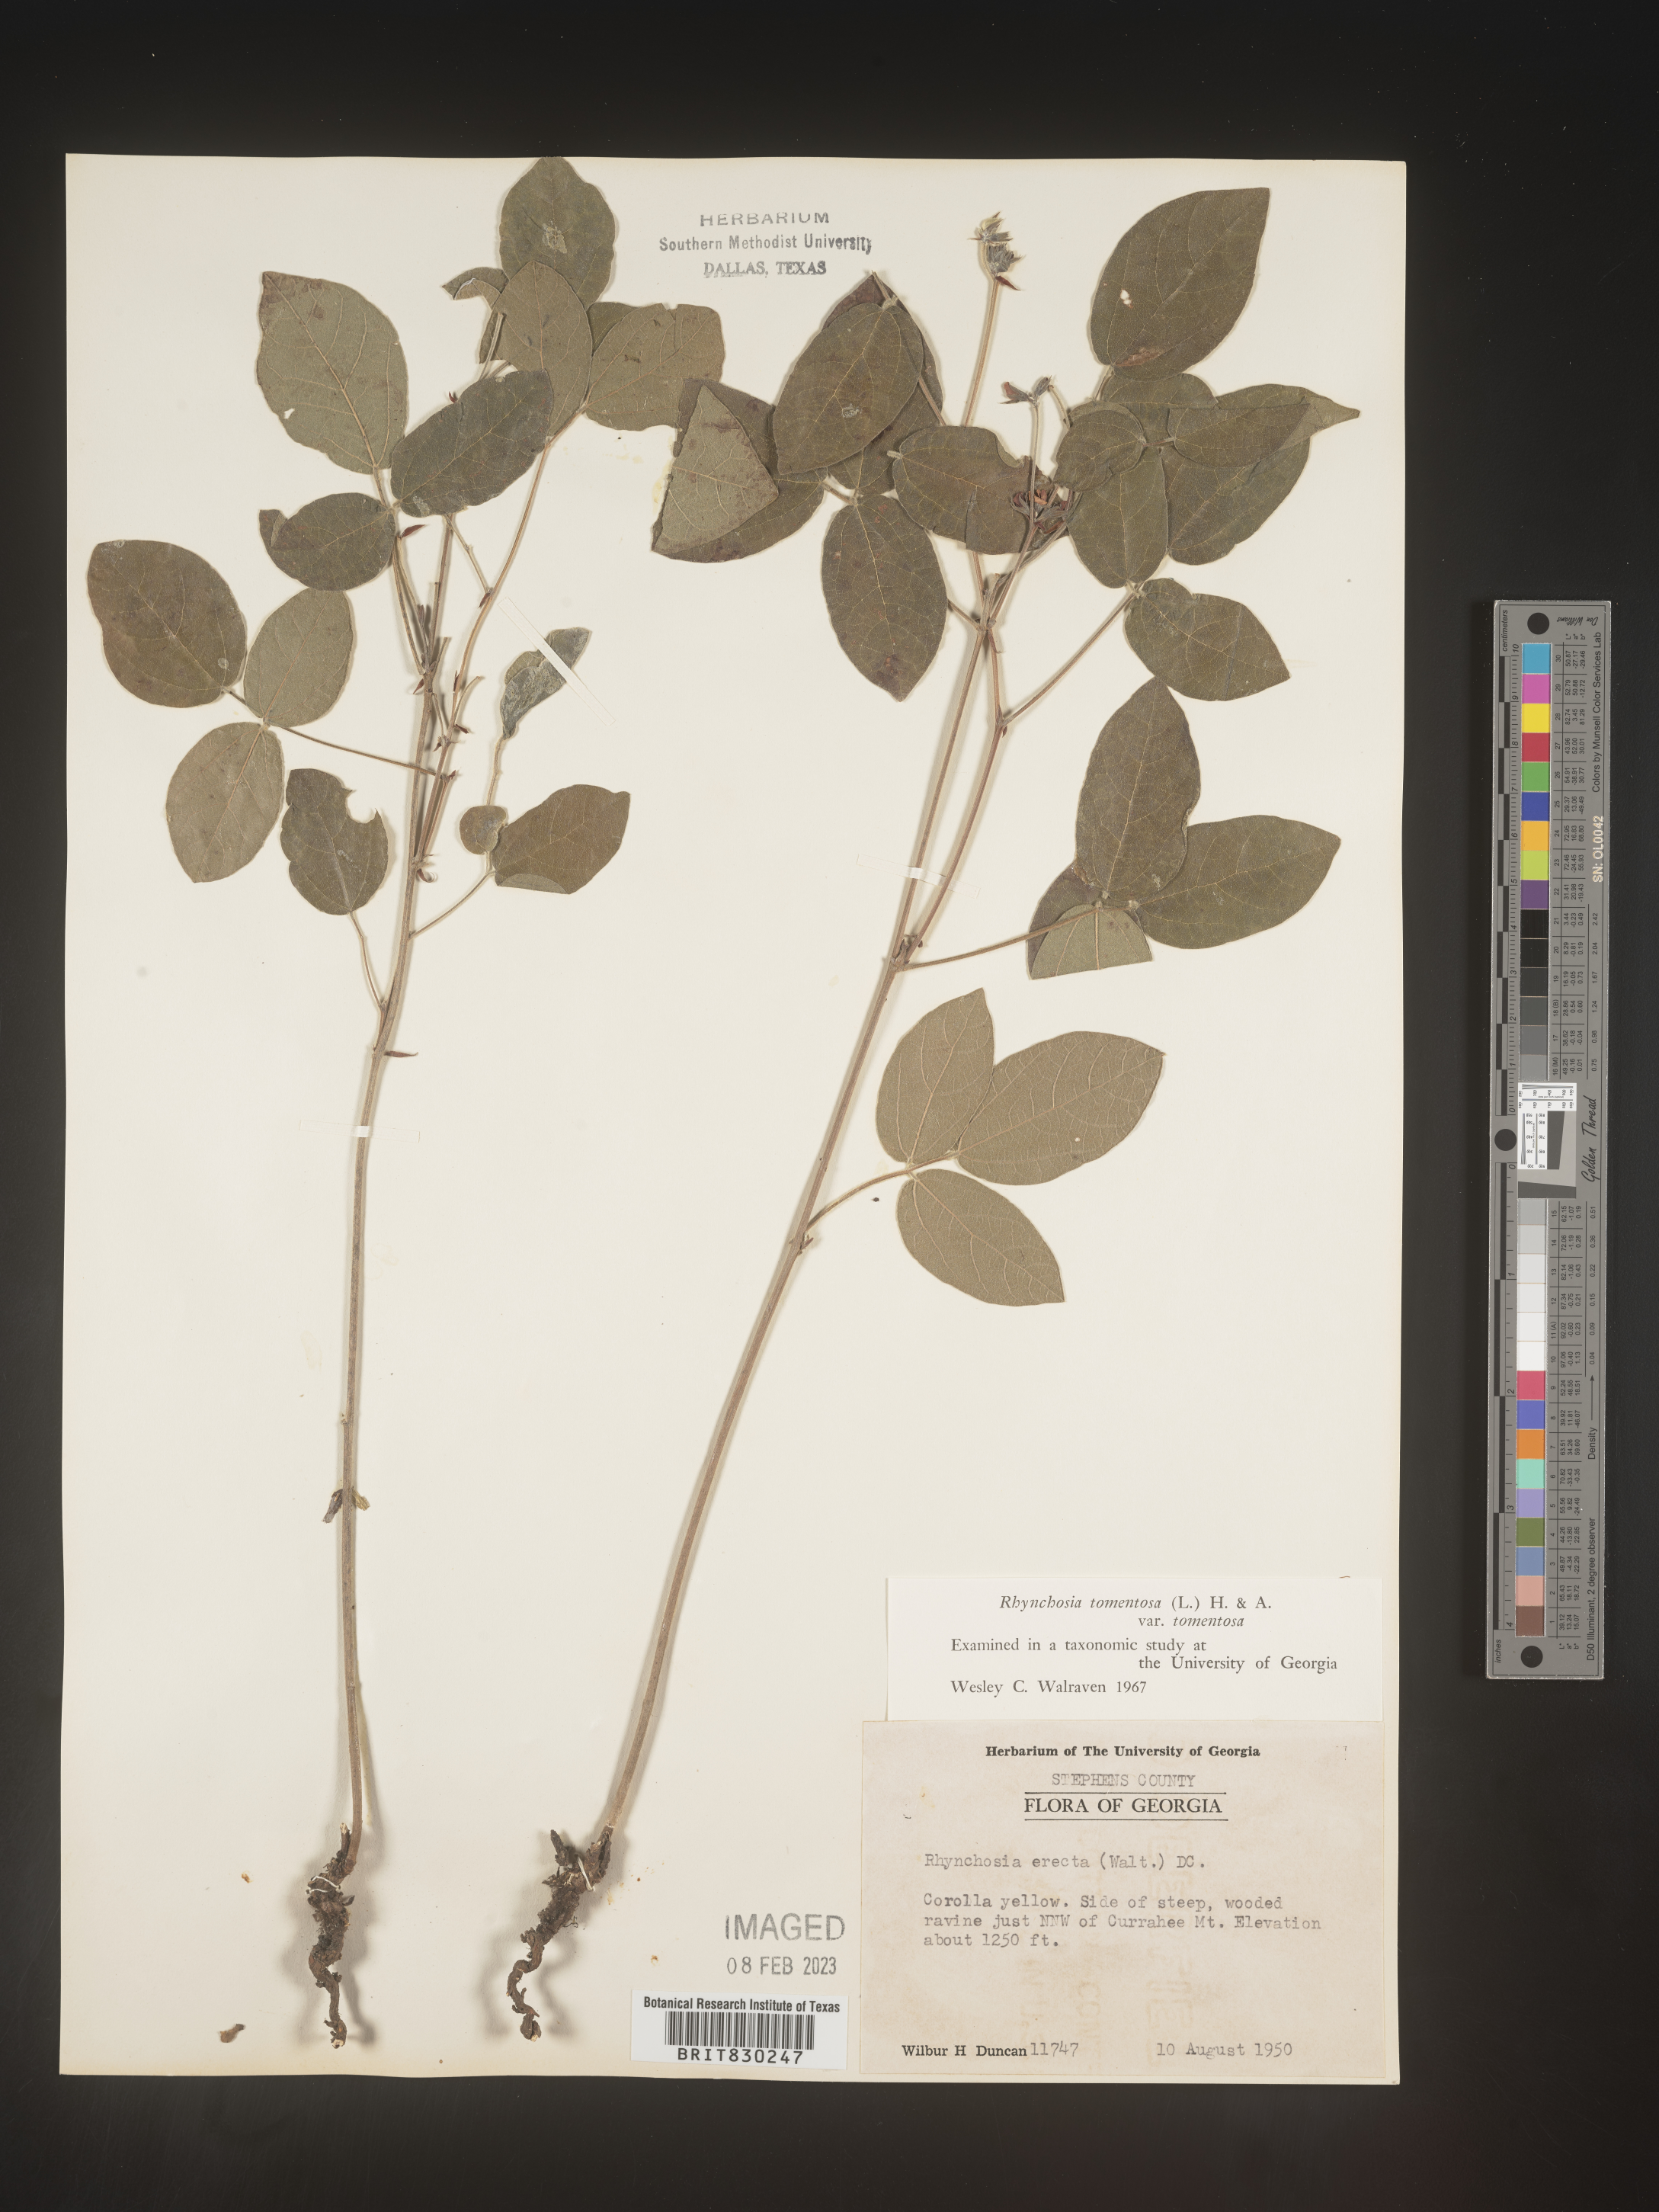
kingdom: Plantae
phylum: Tracheophyta
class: Magnoliopsida
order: Fabales
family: Fabaceae
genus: Rhynchosia
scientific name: Rhynchosia rothii
